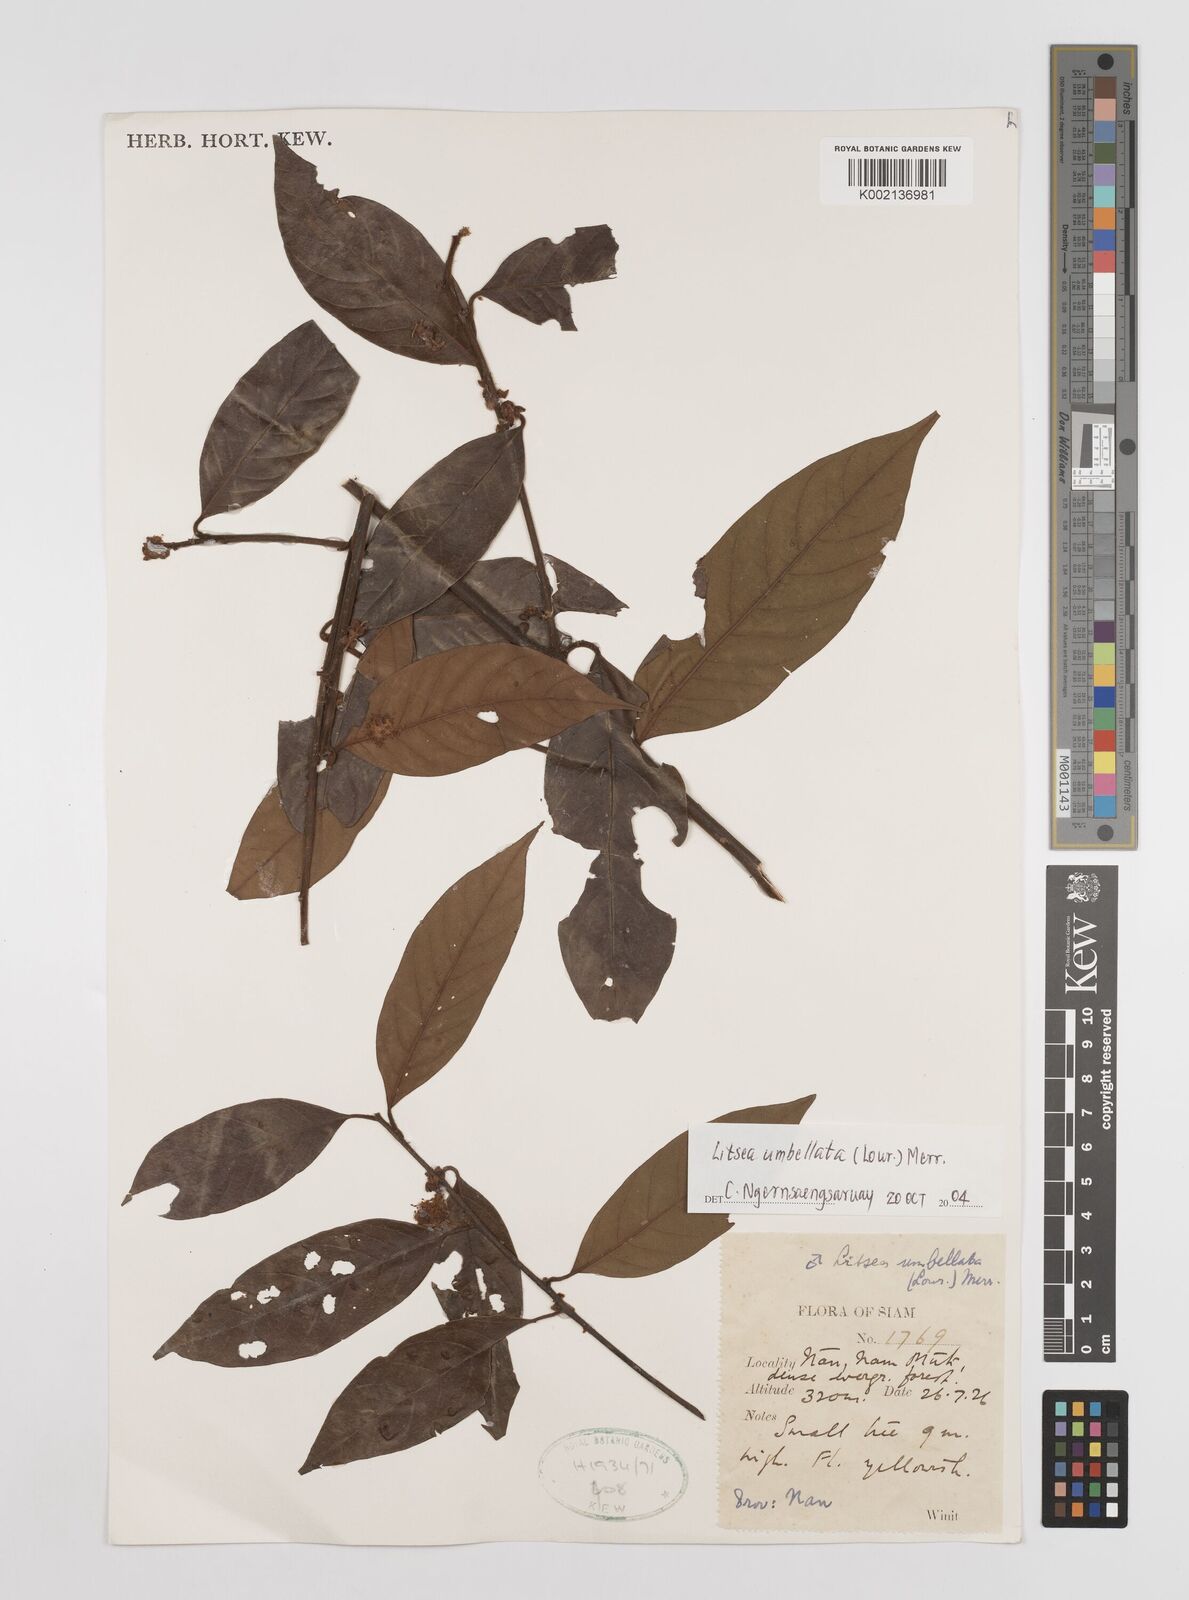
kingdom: Plantae
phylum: Tracheophyta
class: Magnoliopsida
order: Laurales
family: Lauraceae
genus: Litsea
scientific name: Litsea umbellata
